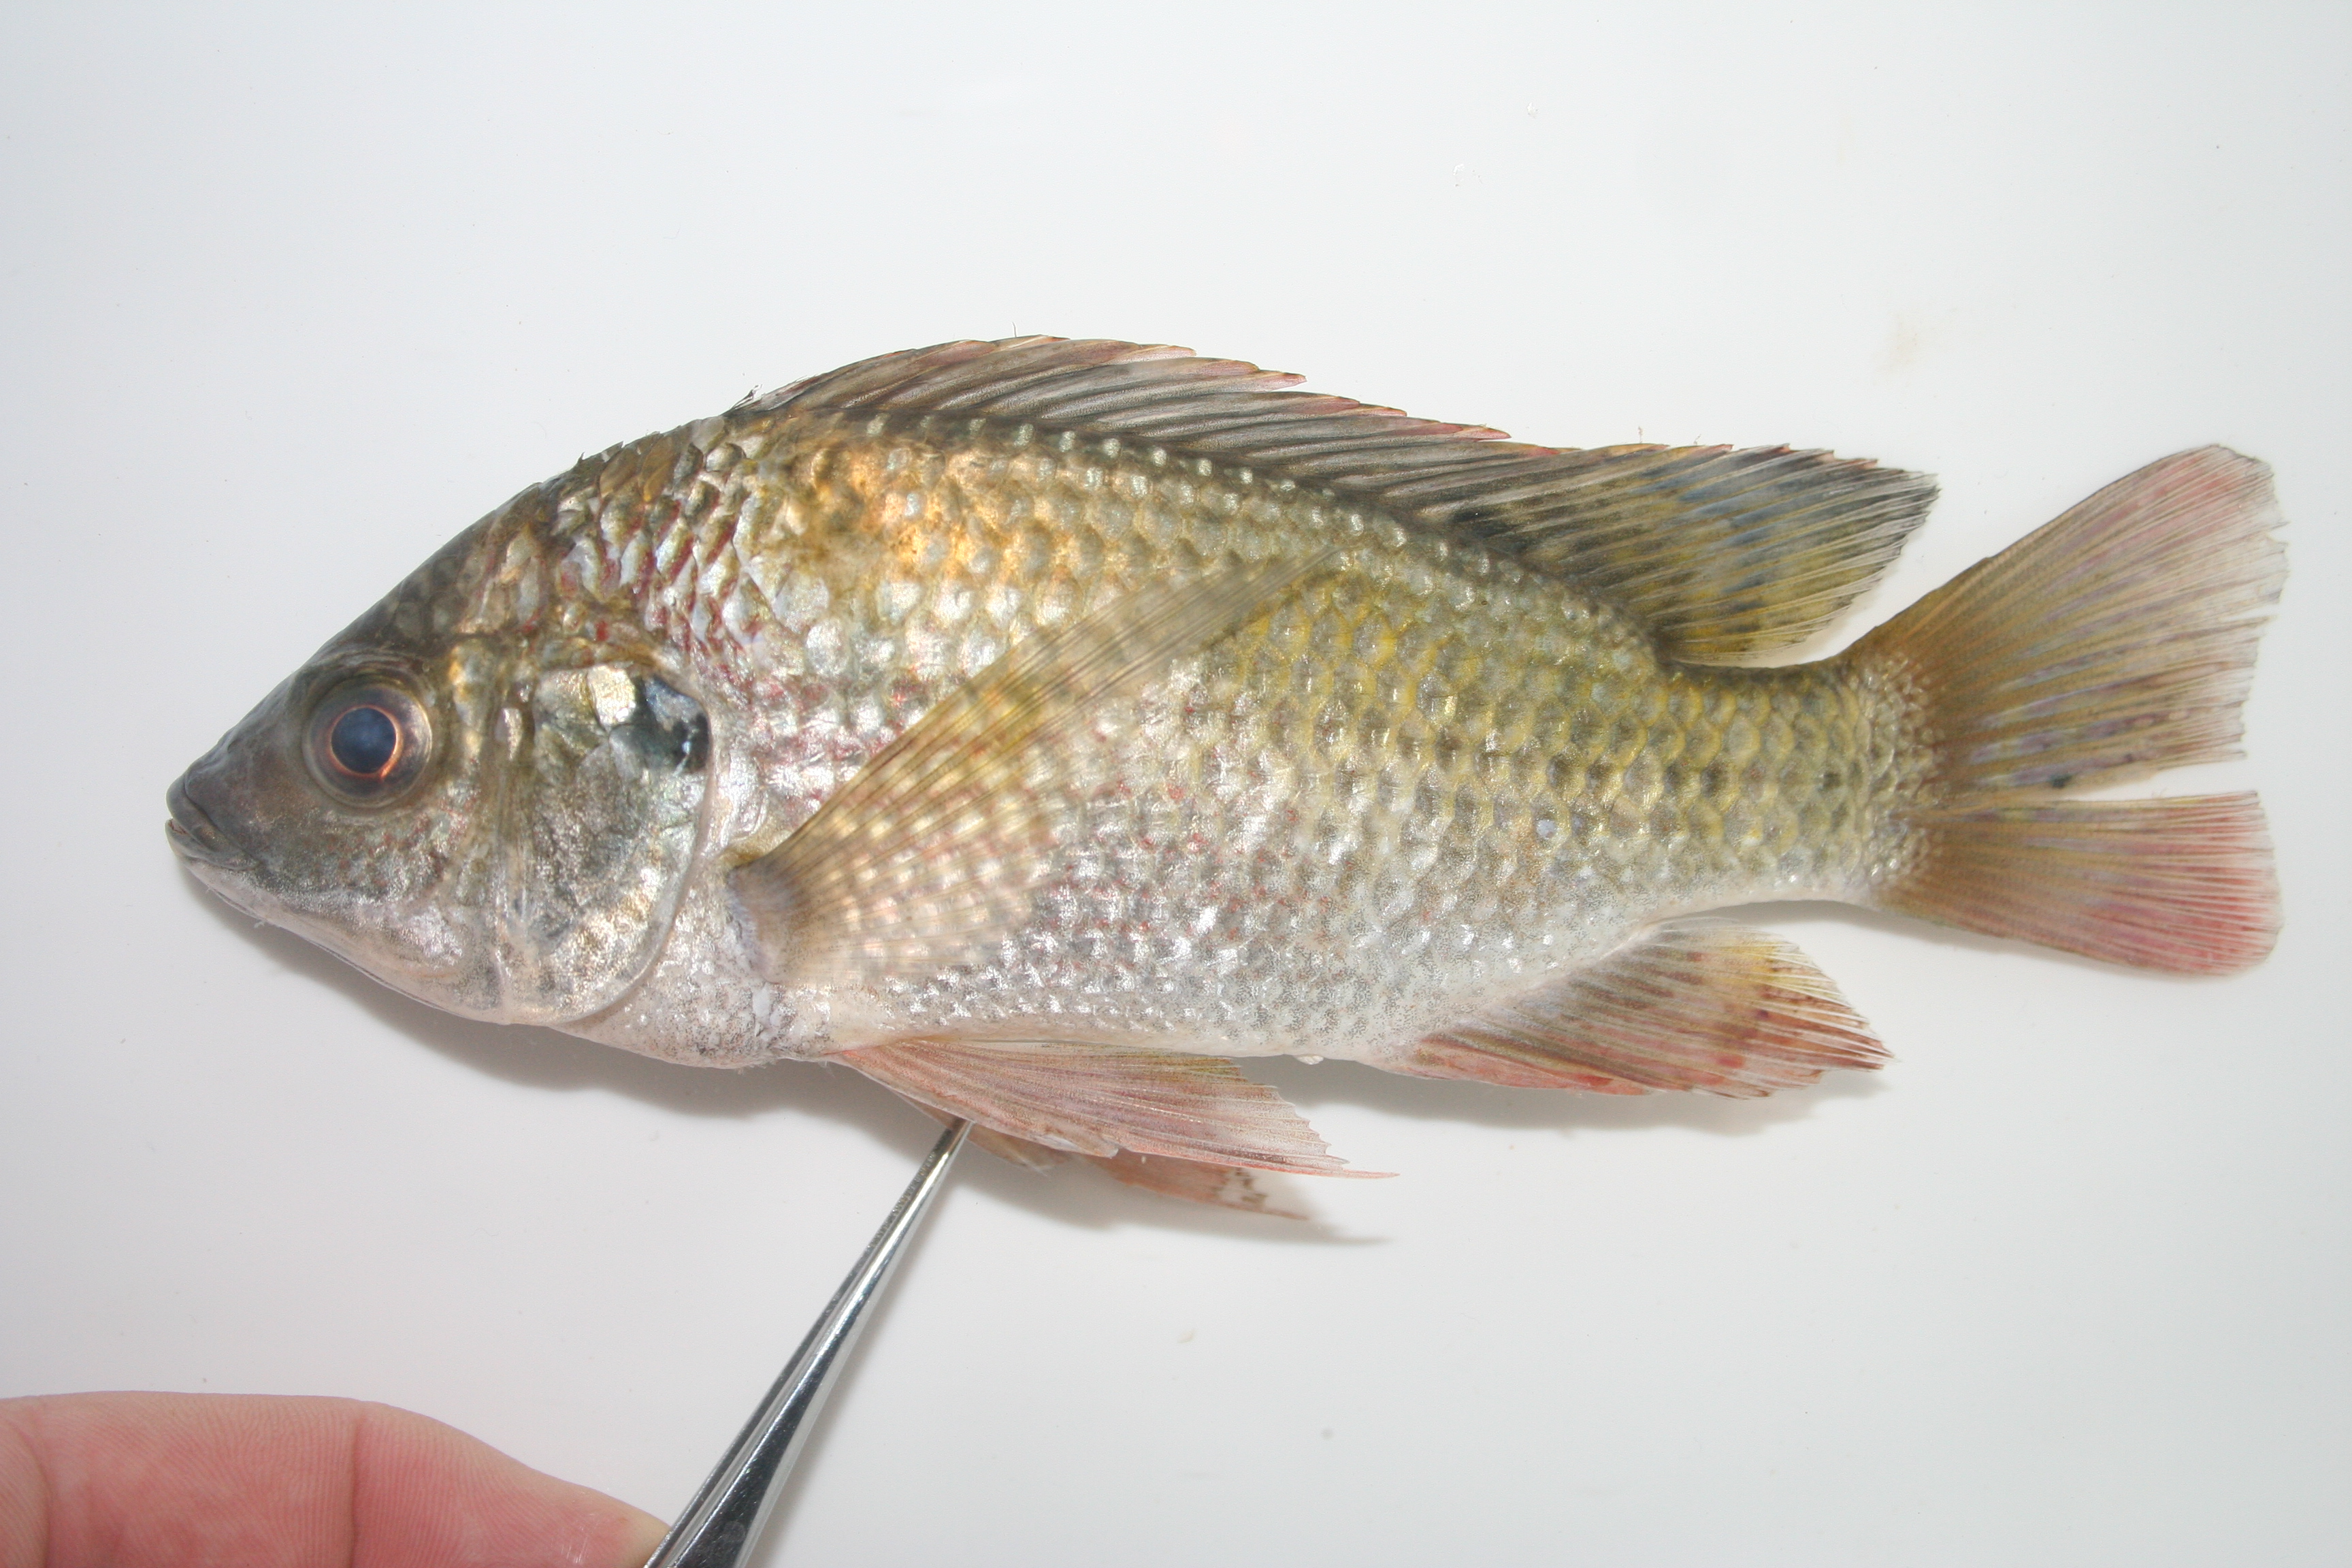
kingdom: Animalia
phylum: Chordata
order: Perciformes
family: Cichlidae
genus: Coptodon
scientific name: Coptodon rendalli
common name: Redbreast tilapia
